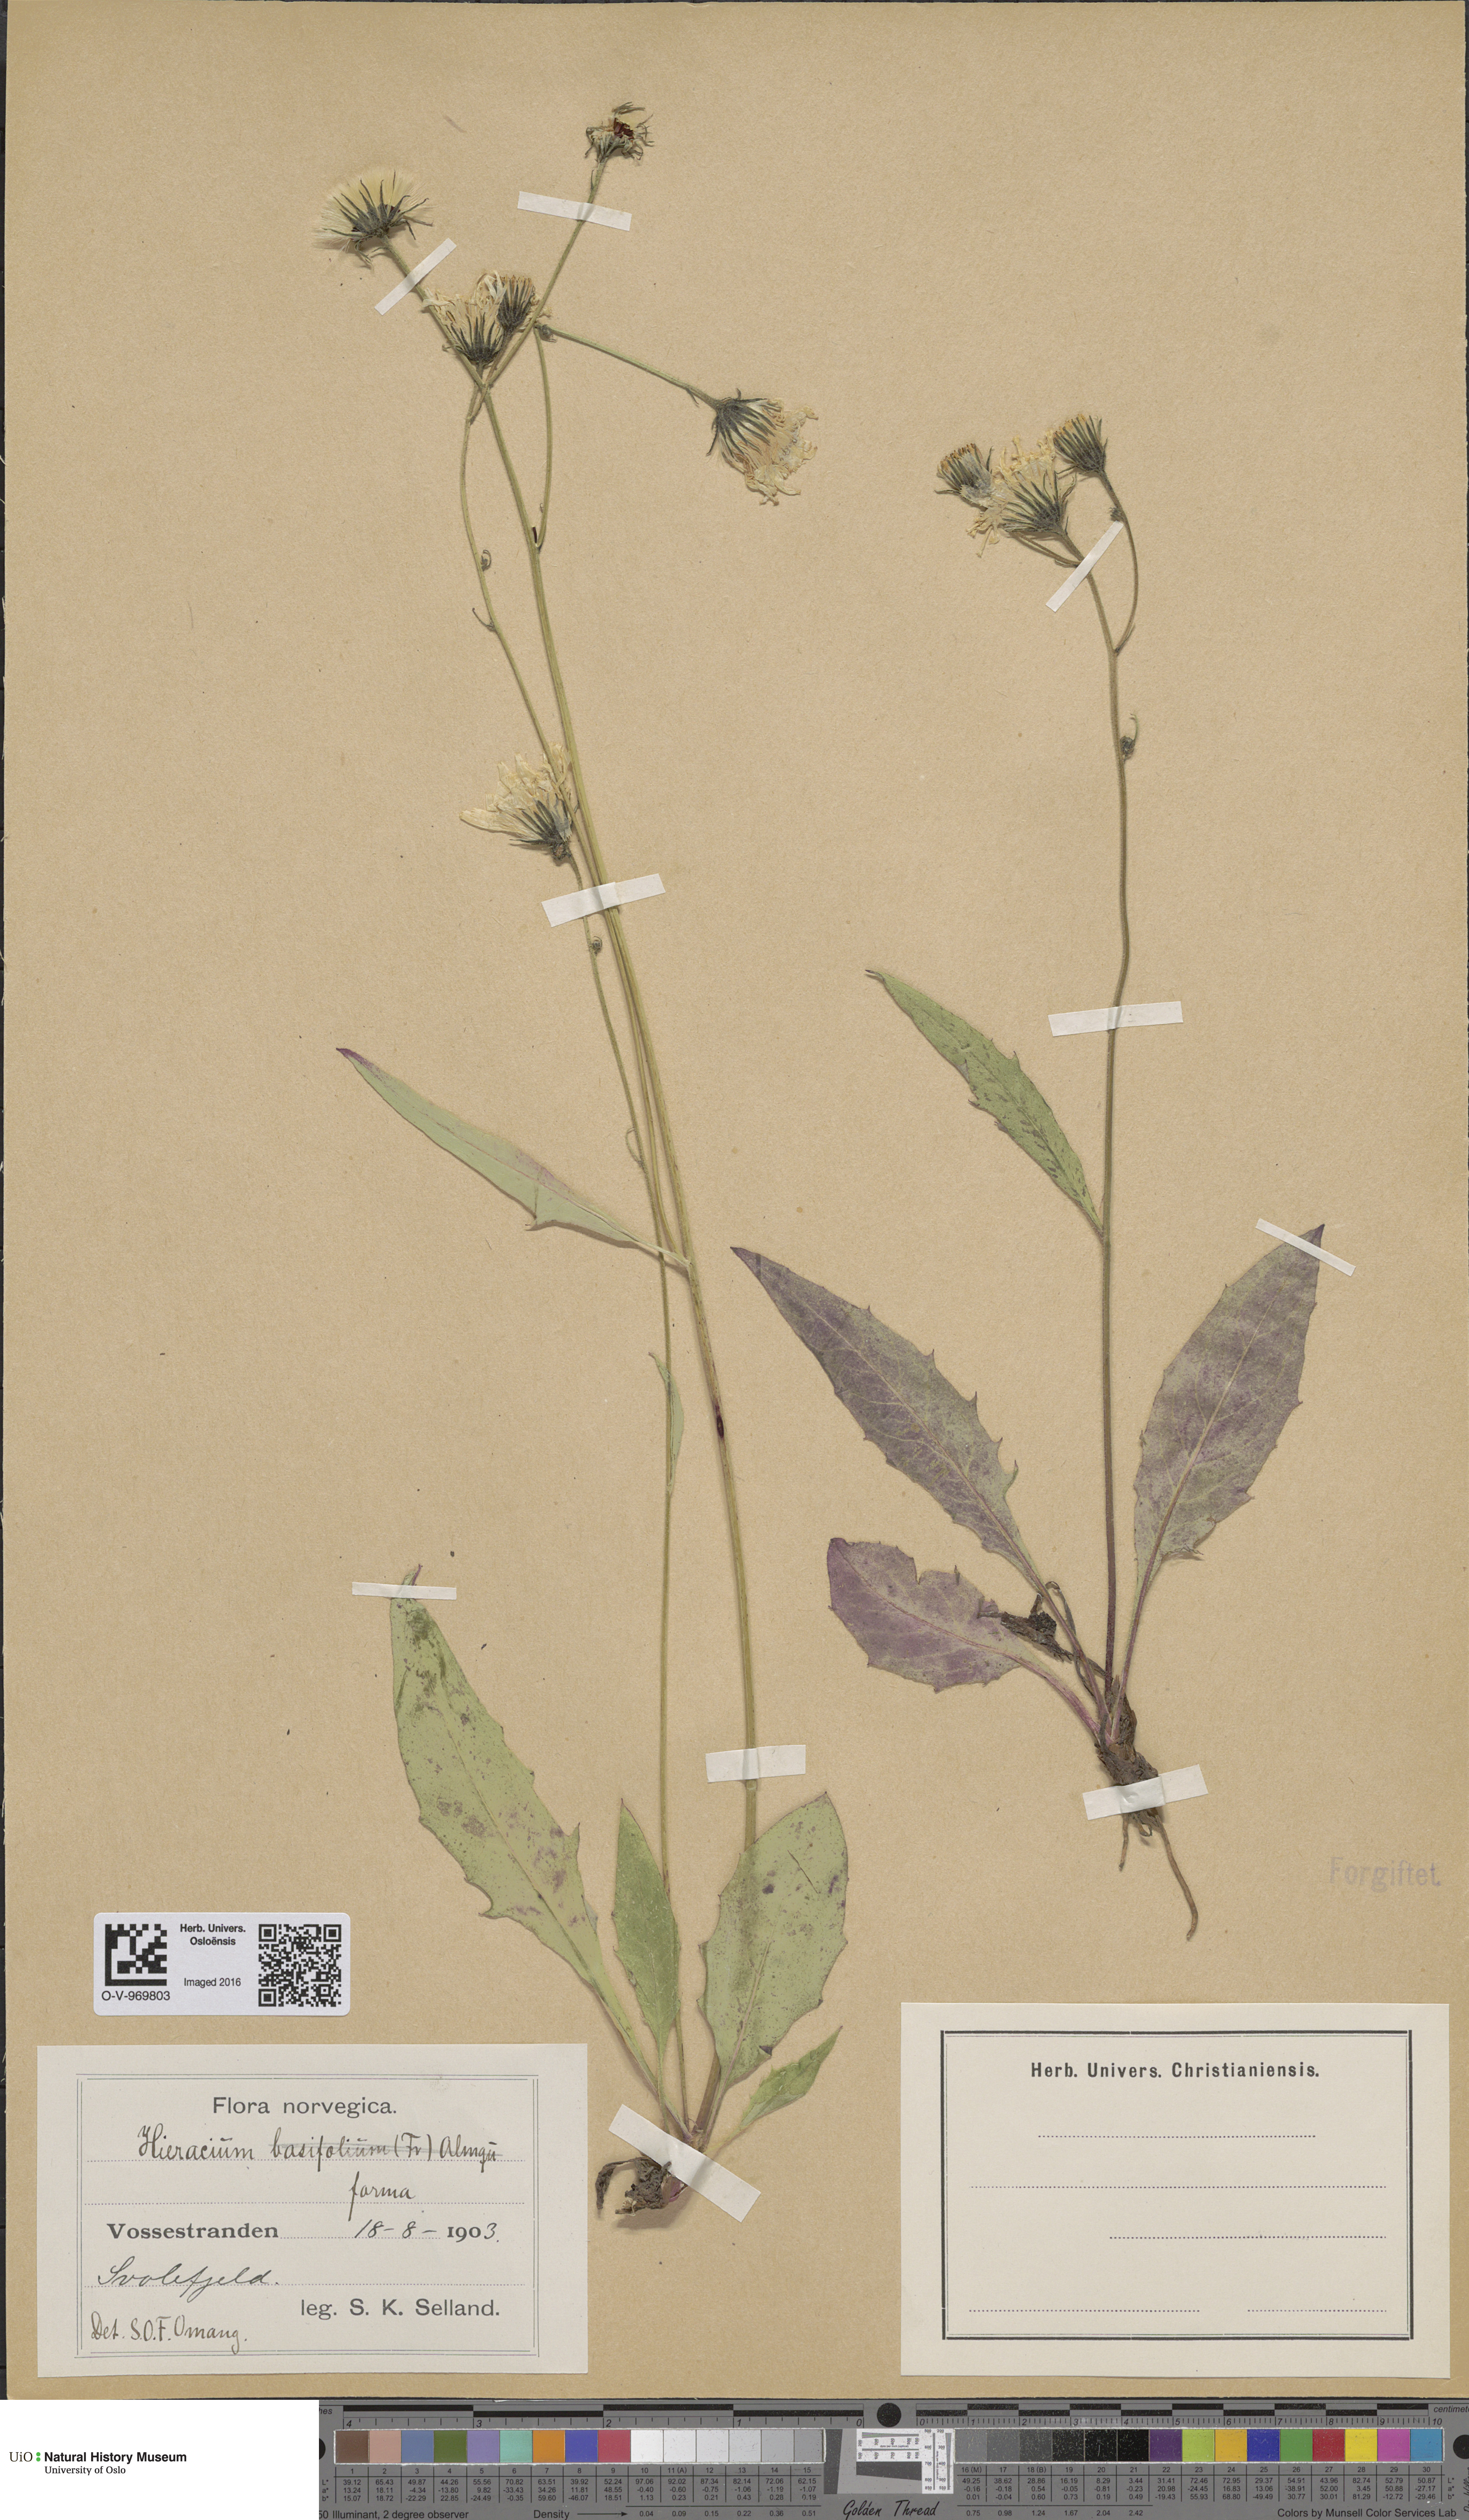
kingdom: Plantae
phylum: Tracheophyta
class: Magnoliopsida
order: Asterales
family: Asteraceae
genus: Hieracium
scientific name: Hieracium
